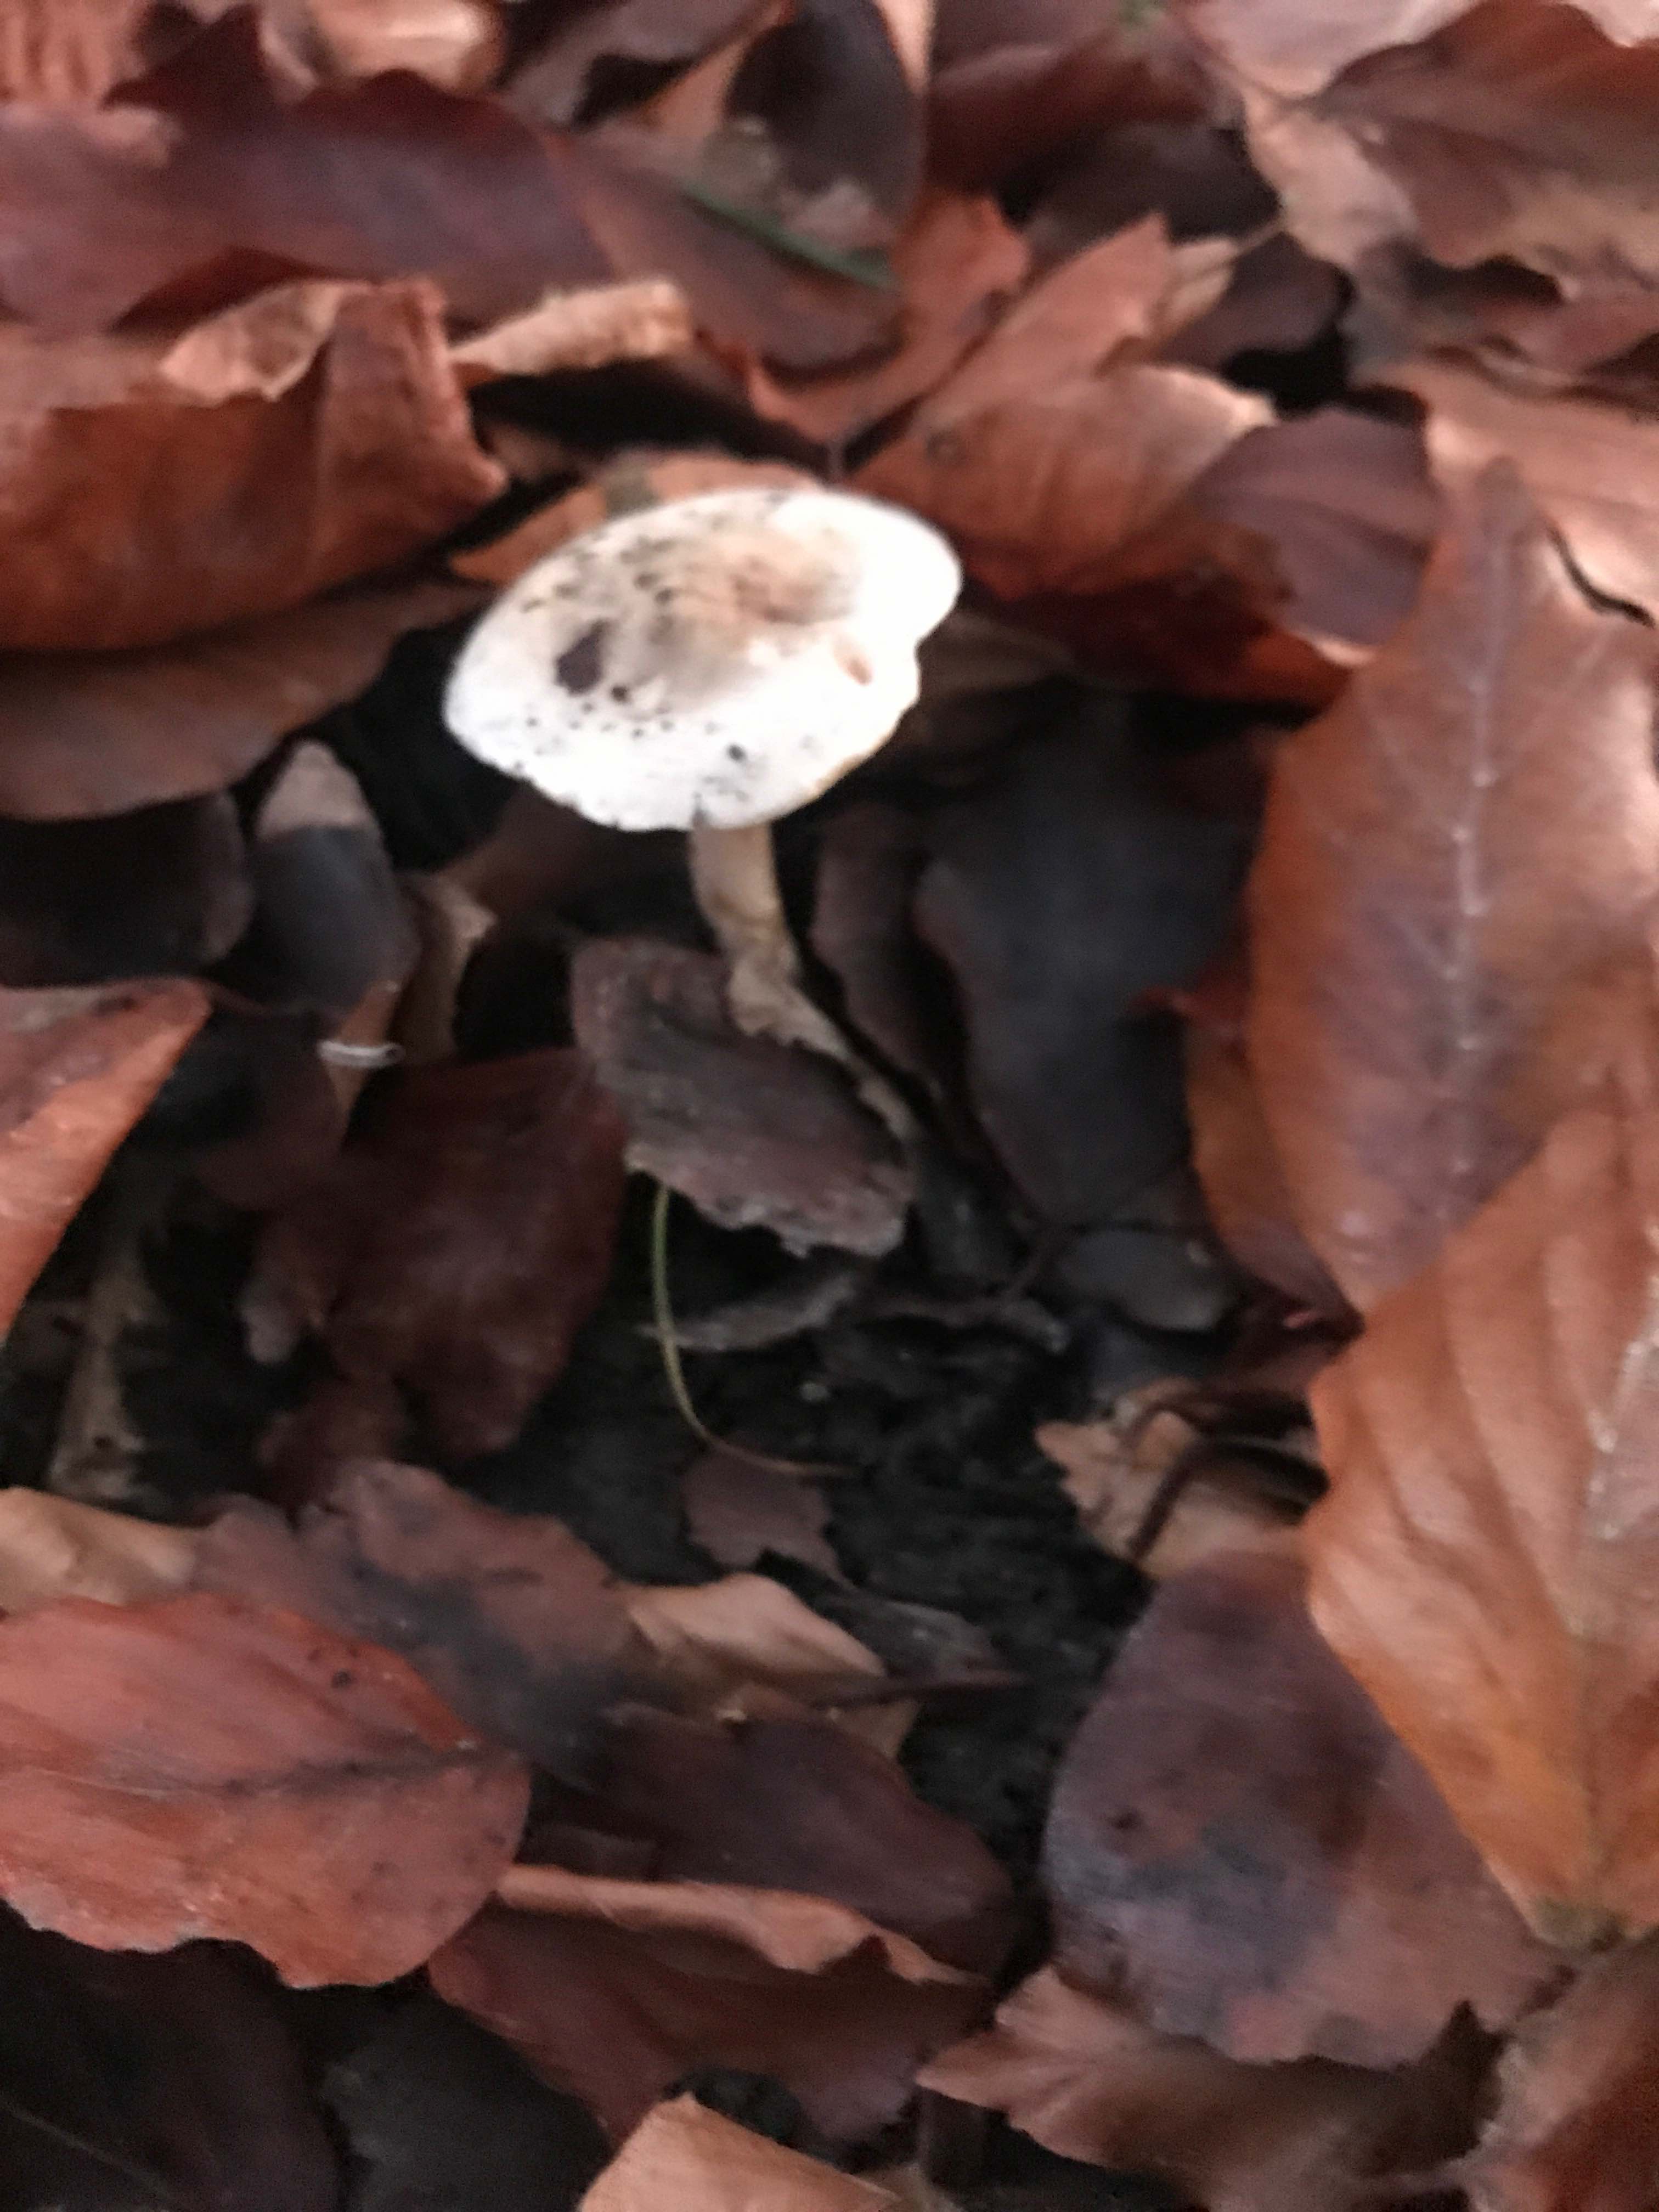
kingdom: Fungi
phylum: Basidiomycota
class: Agaricomycetes
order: Agaricales
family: Hymenogastraceae
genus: Hebeloma
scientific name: Hebeloma
